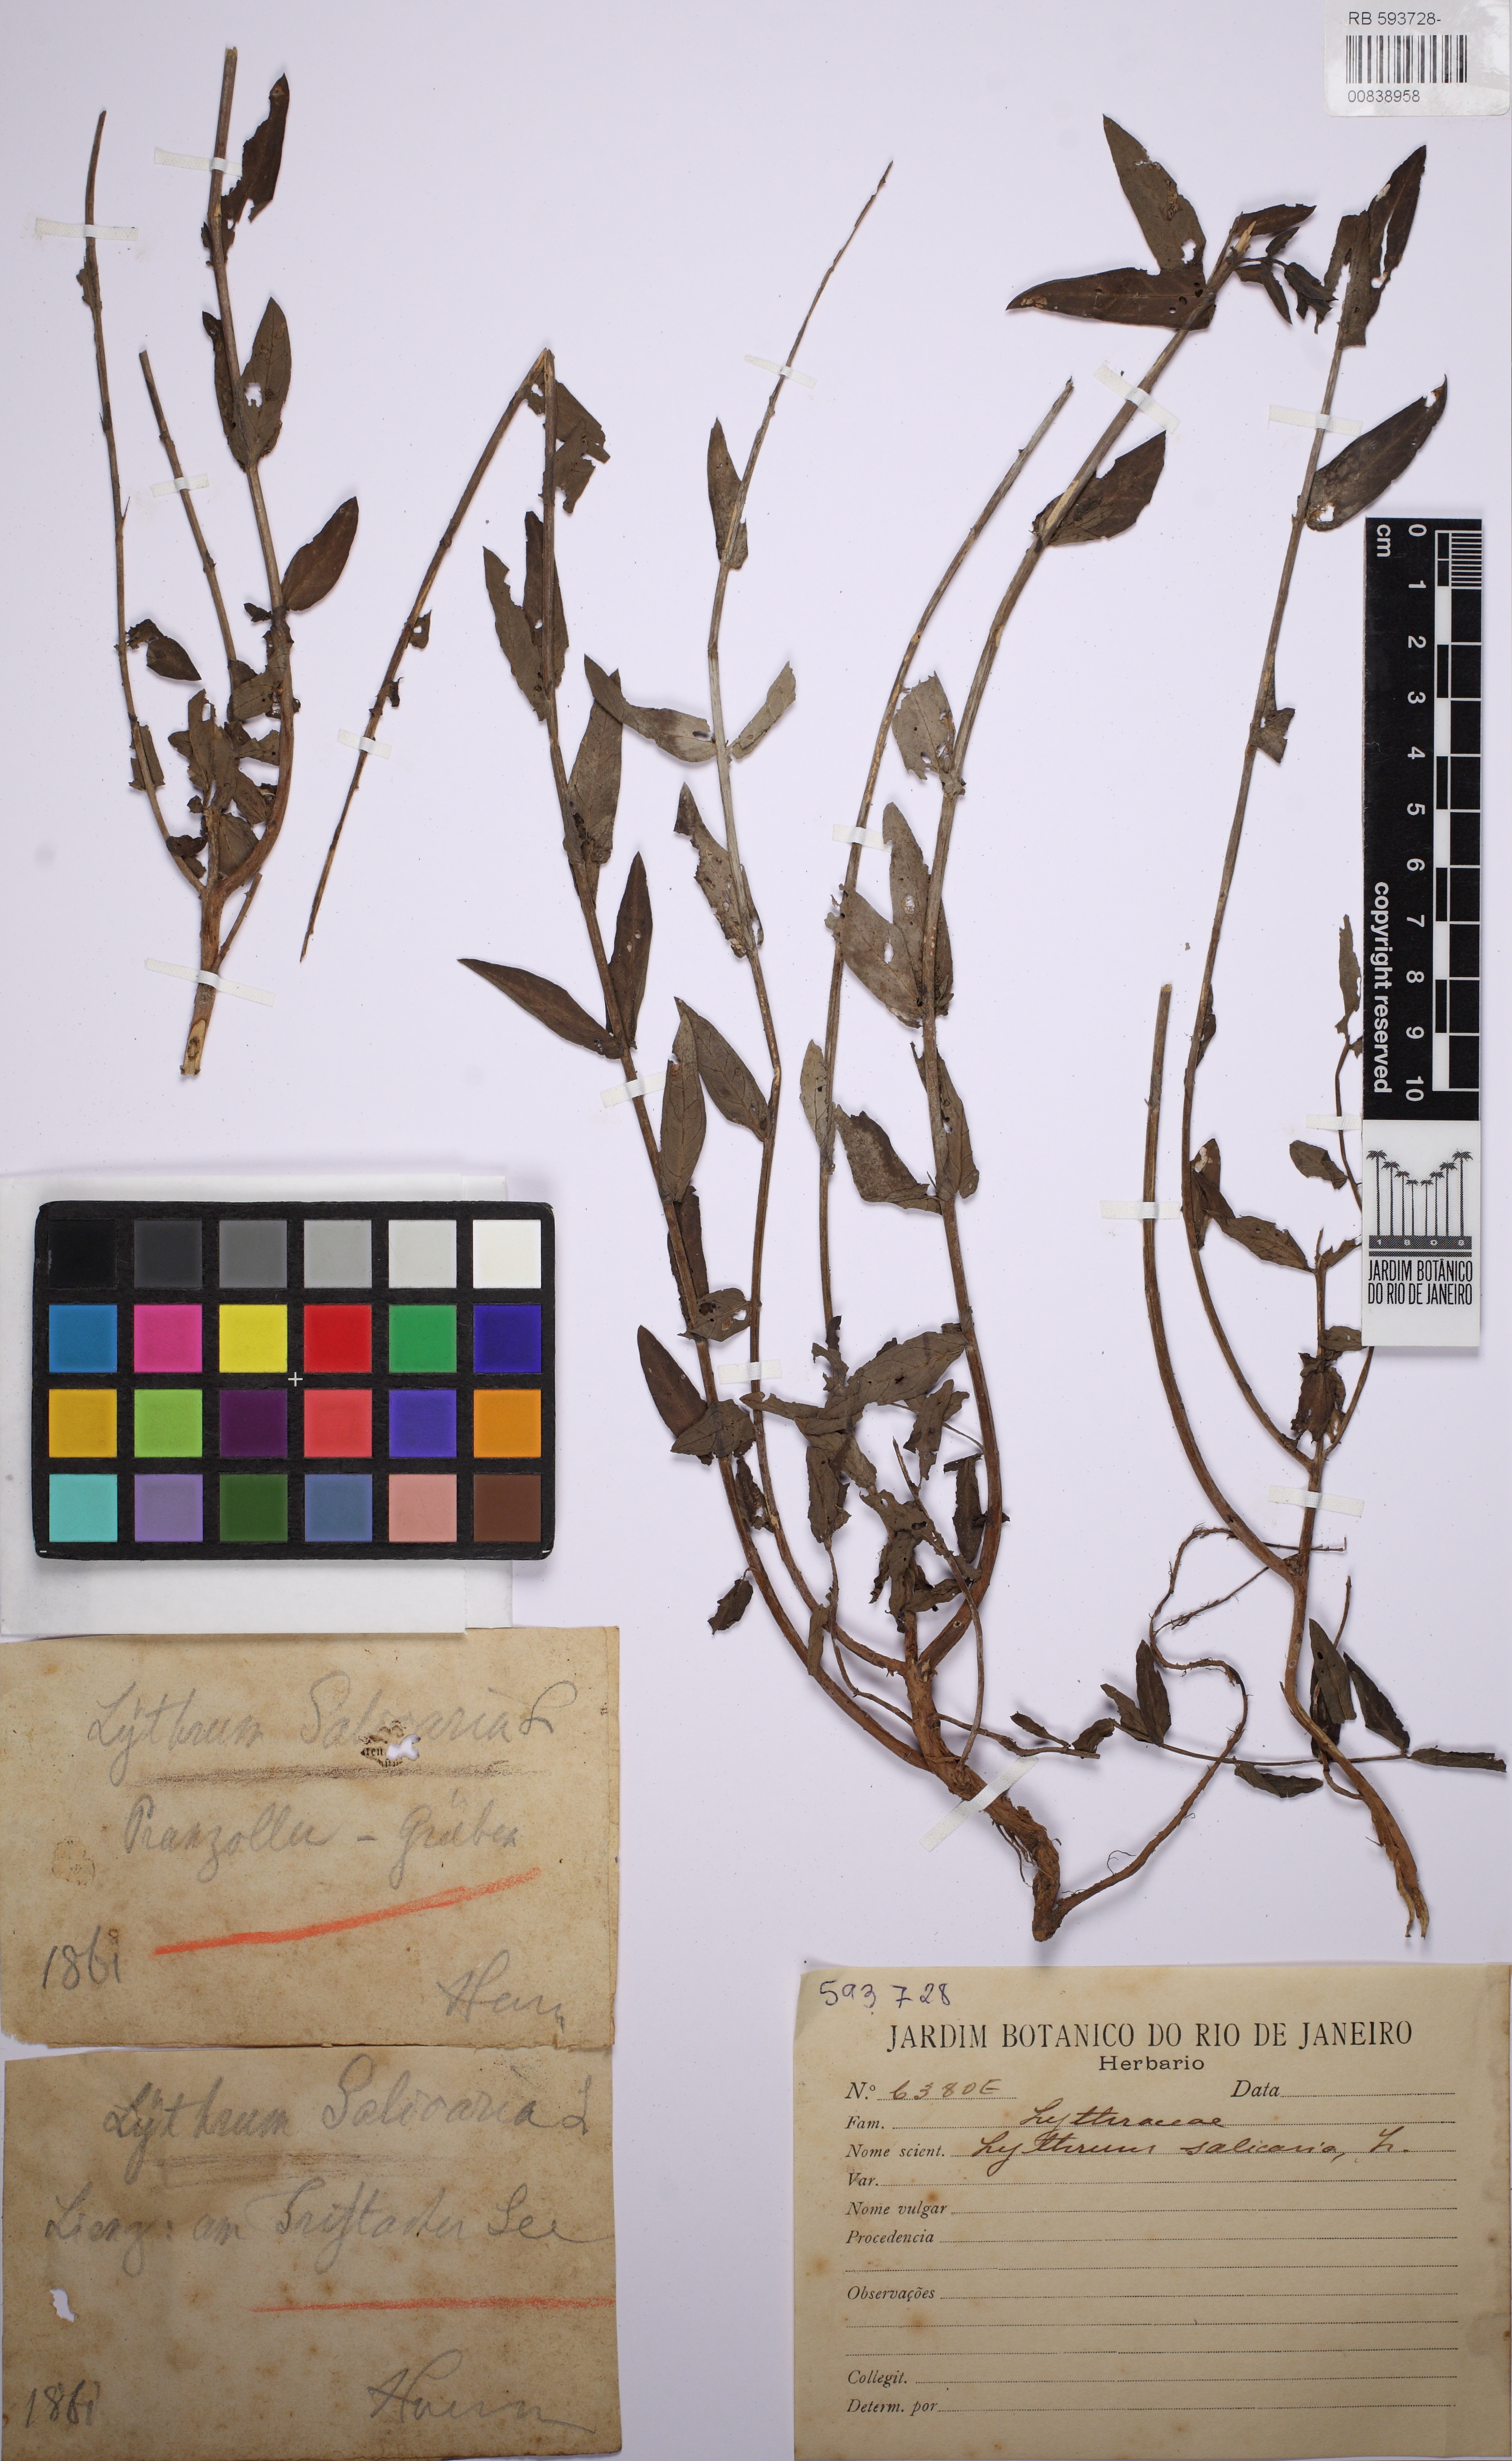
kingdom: Plantae
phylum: Tracheophyta
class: Magnoliopsida
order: Myrtales
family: Lythraceae
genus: Lythrum
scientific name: Lythrum salicaria
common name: Purple loosestrife
